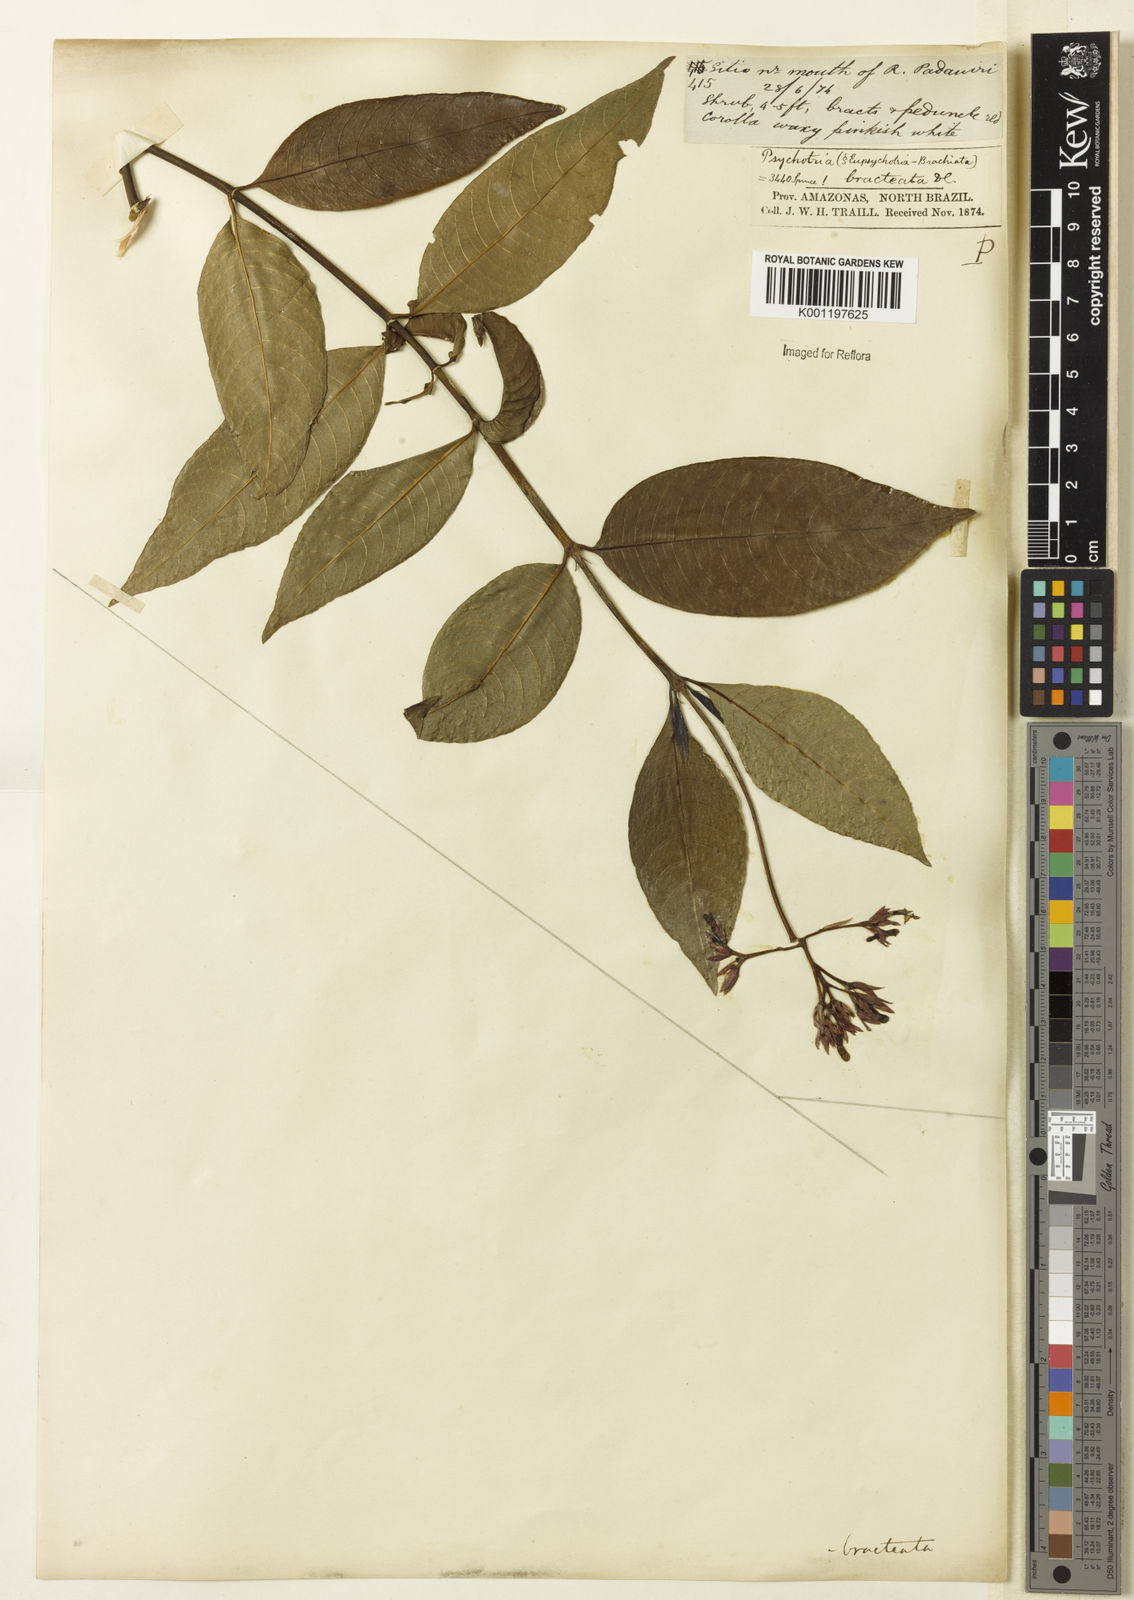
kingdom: Plantae
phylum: Tracheophyta
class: Magnoliopsida
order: Gentianales
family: Rubiaceae
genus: Palicourea
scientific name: Palicourea maguireorum
